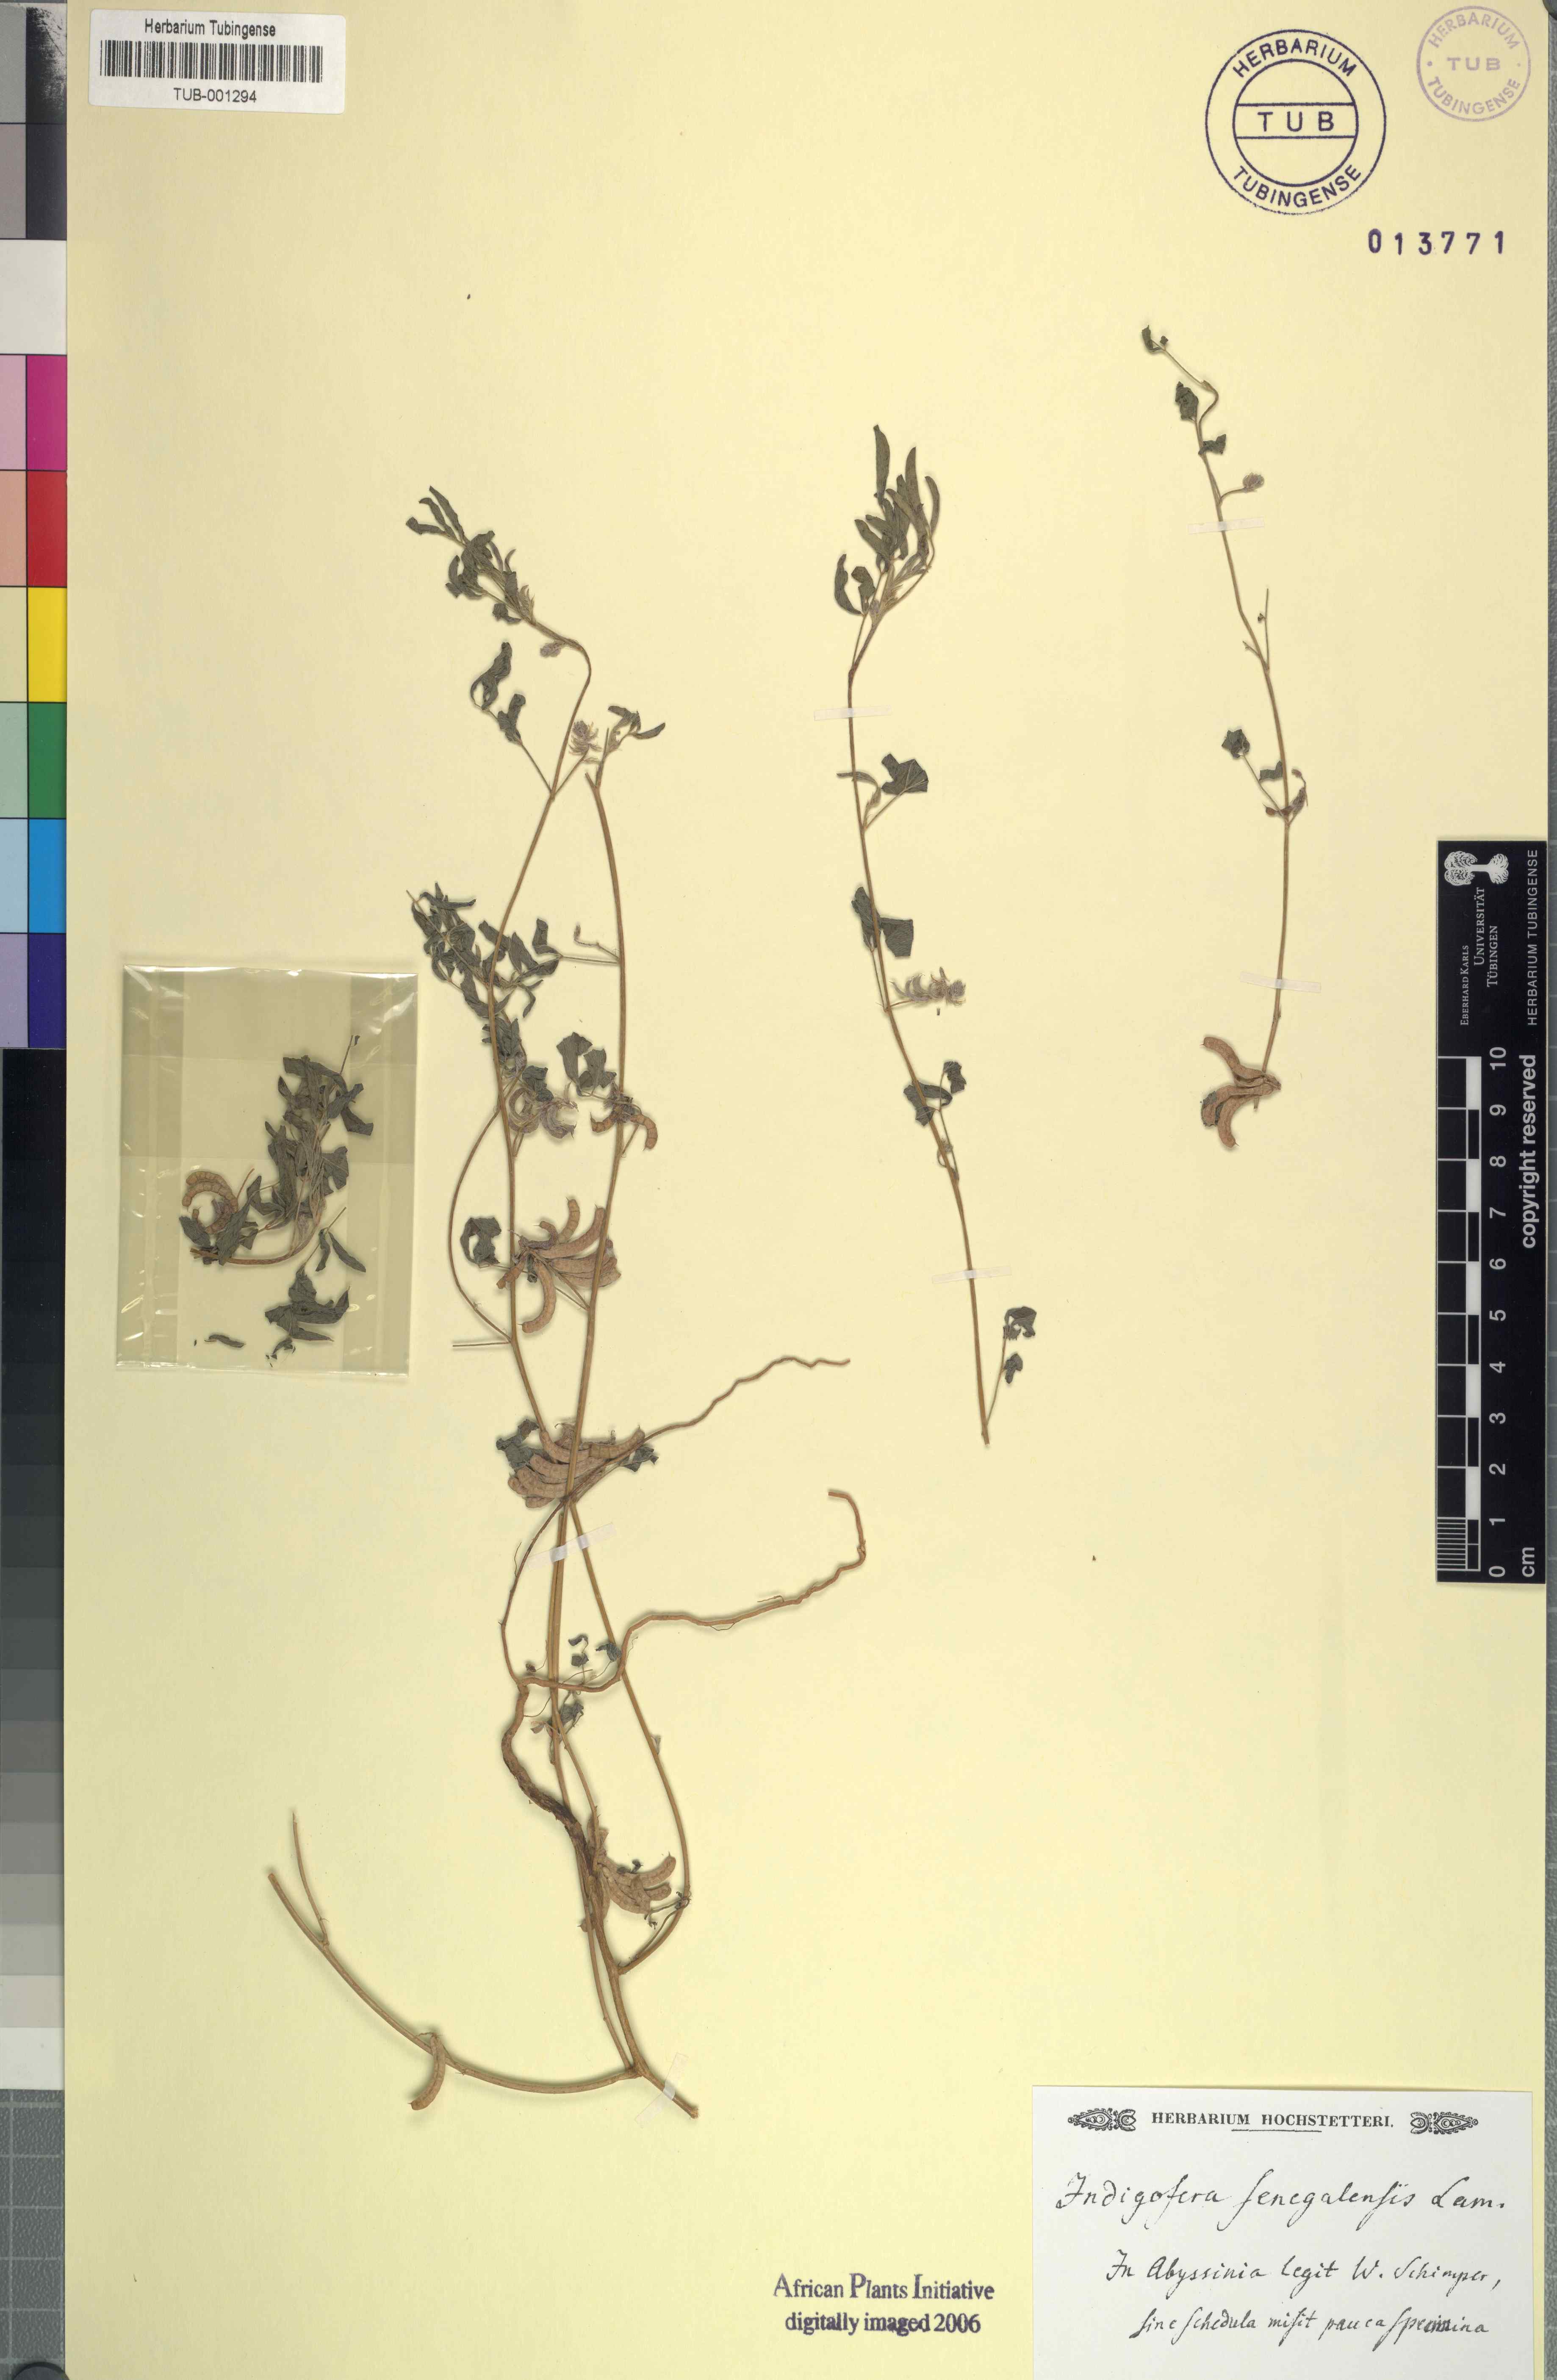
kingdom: Plantae
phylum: Tracheophyta
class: Magnoliopsida
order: Fabales
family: Fabaceae
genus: Indigofera
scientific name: Indigofera senegalensis
